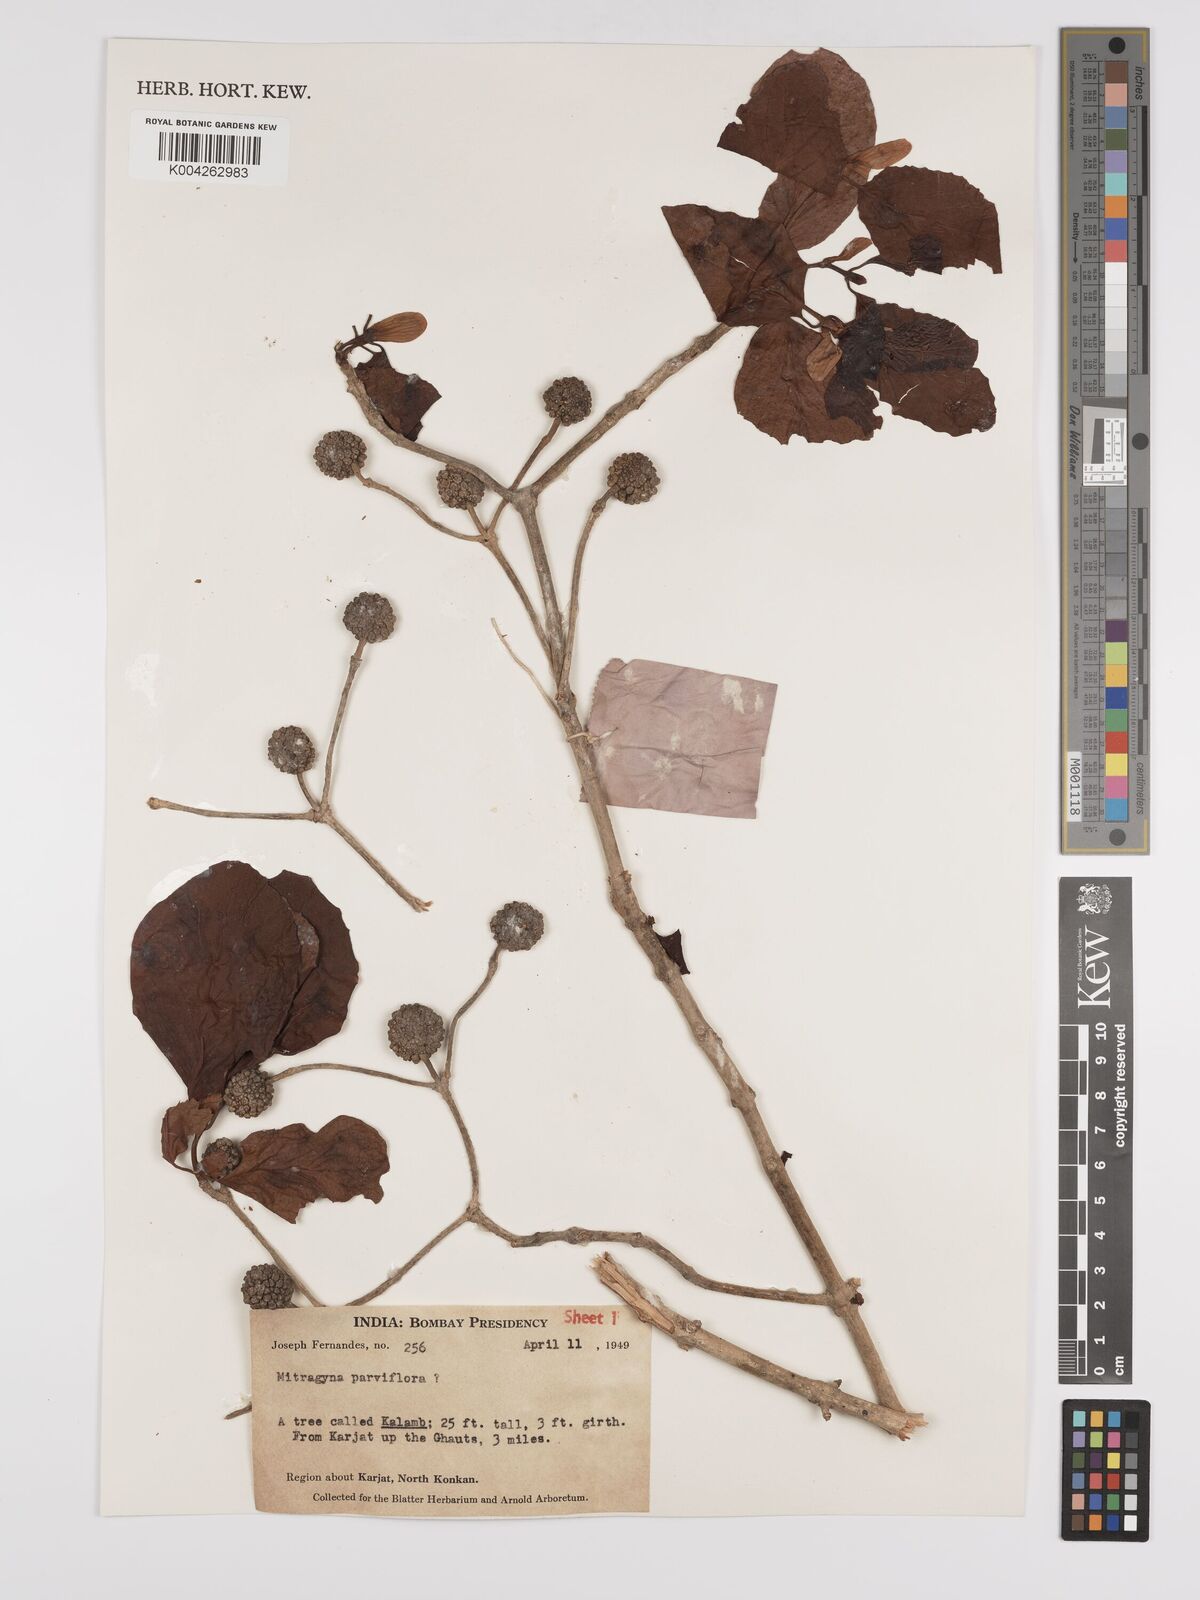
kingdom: Plantae
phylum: Tracheophyta
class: Magnoliopsida
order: Gentianales
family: Rubiaceae
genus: Mitragyna
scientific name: Mitragyna parvifolia
